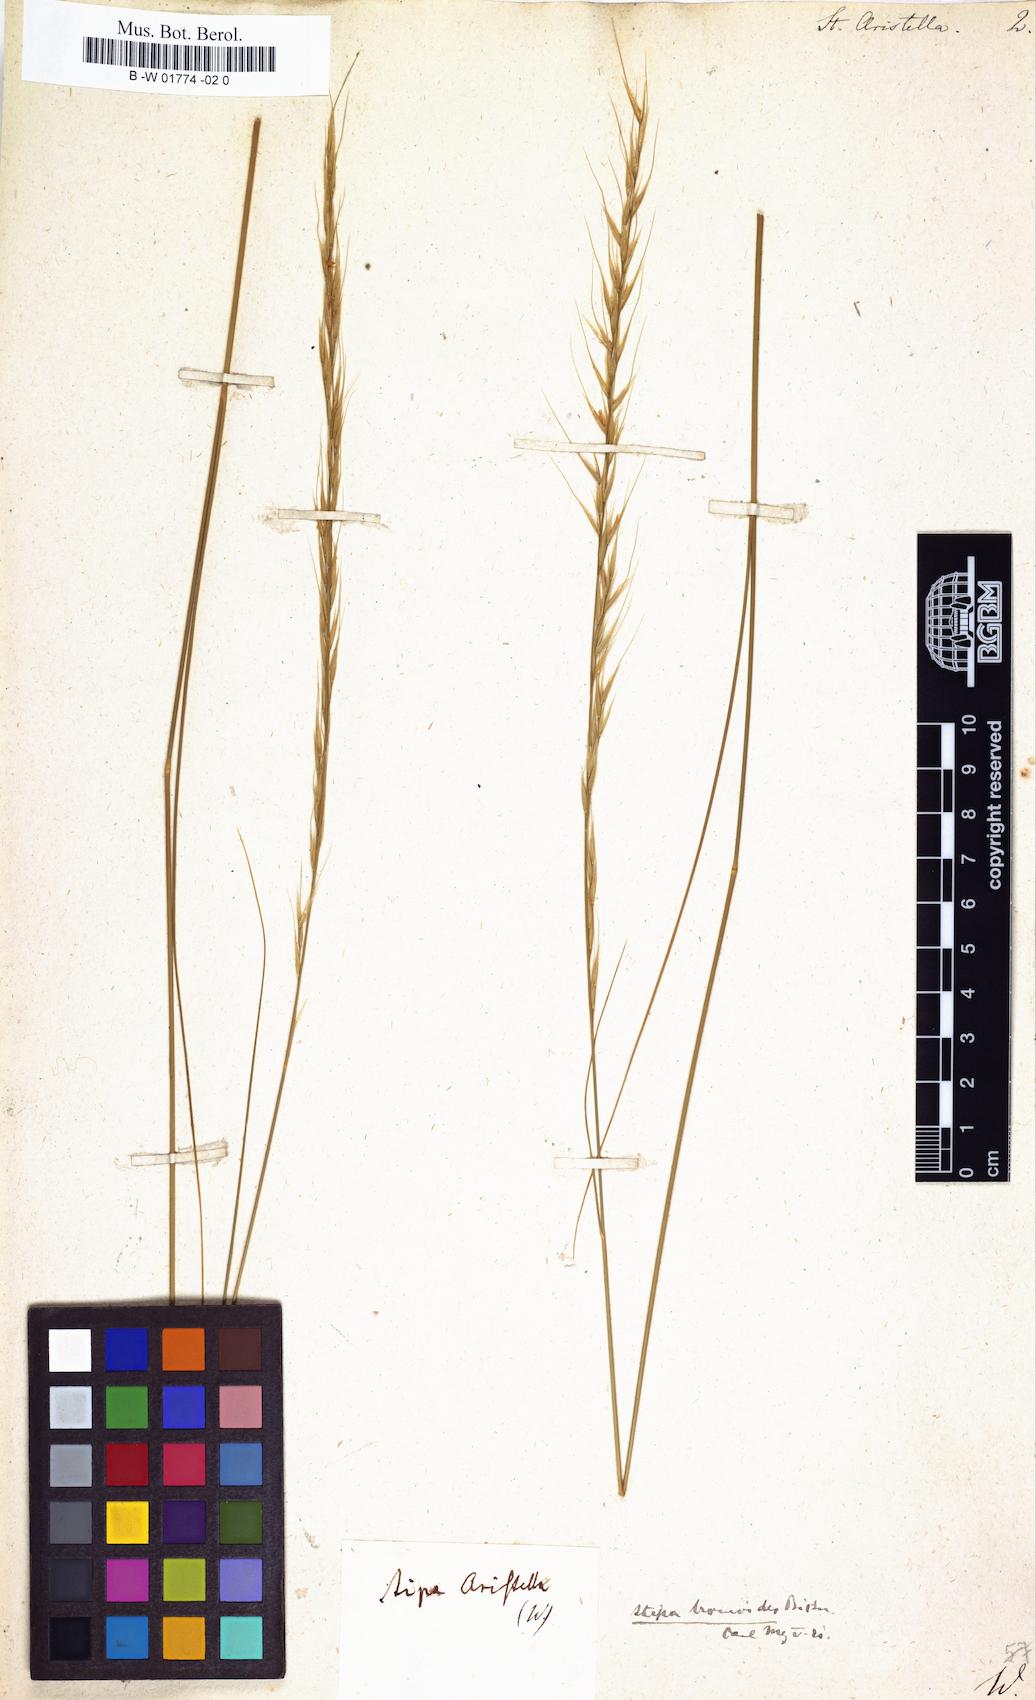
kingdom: Plantae
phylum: Tracheophyta
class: Liliopsida
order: Poales
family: Poaceae
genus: Achnatherum
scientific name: Achnatherum bromoides
